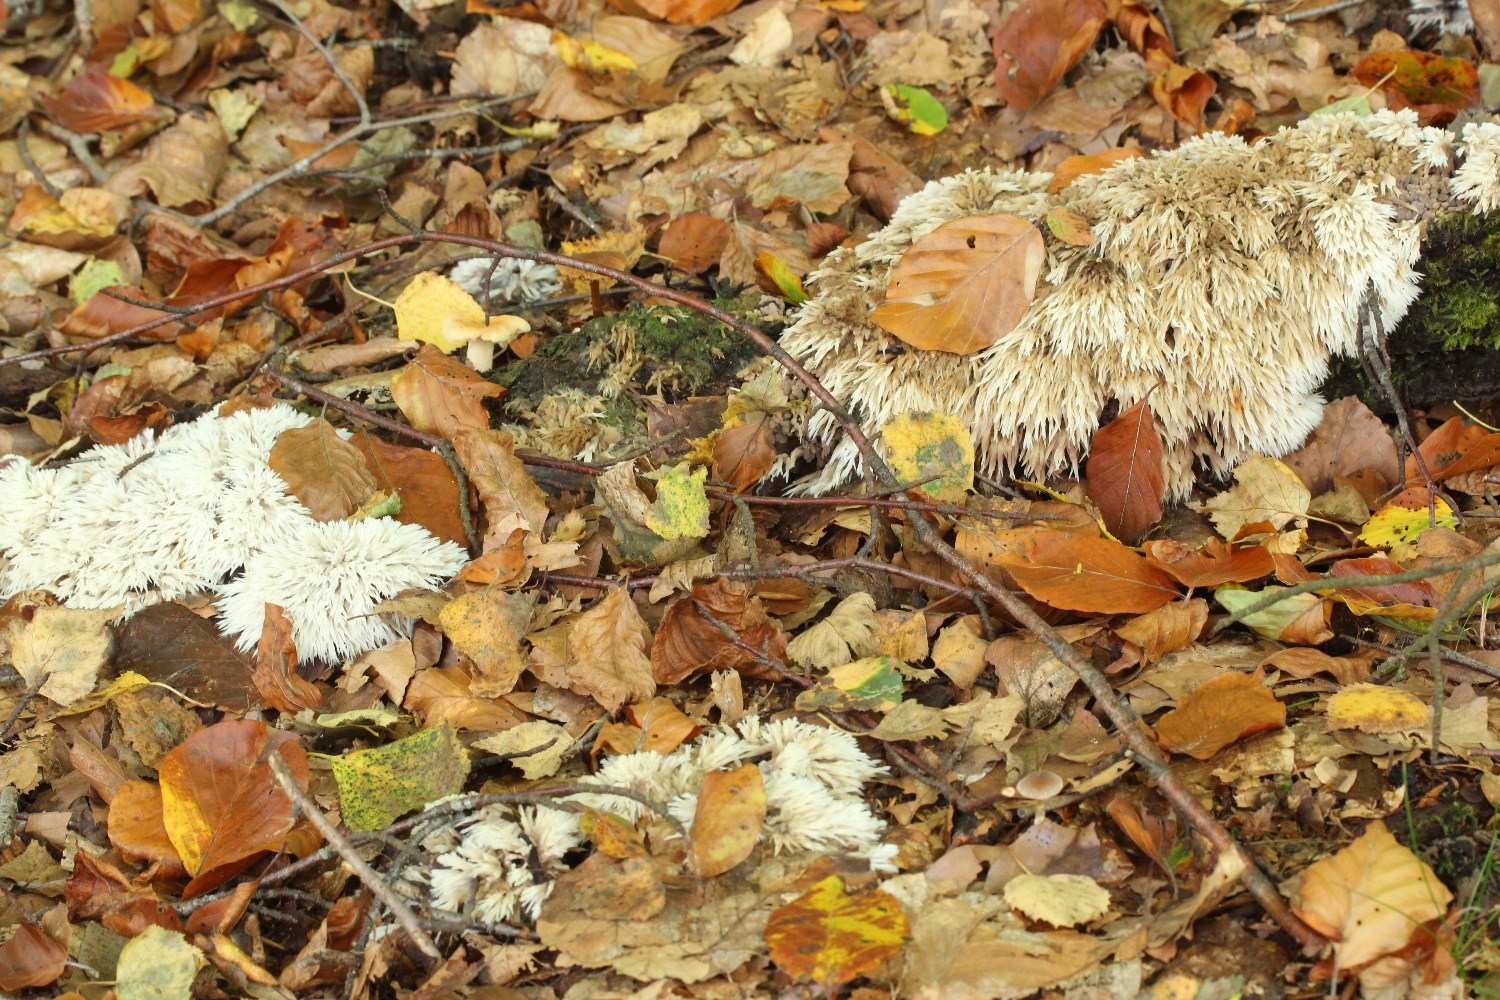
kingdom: Fungi
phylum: Basidiomycota
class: Agaricomycetes
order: Thelephorales
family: Thelephoraceae
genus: Thelephora
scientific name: Thelephora penicillata
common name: fladtrådt frynsesvamp
